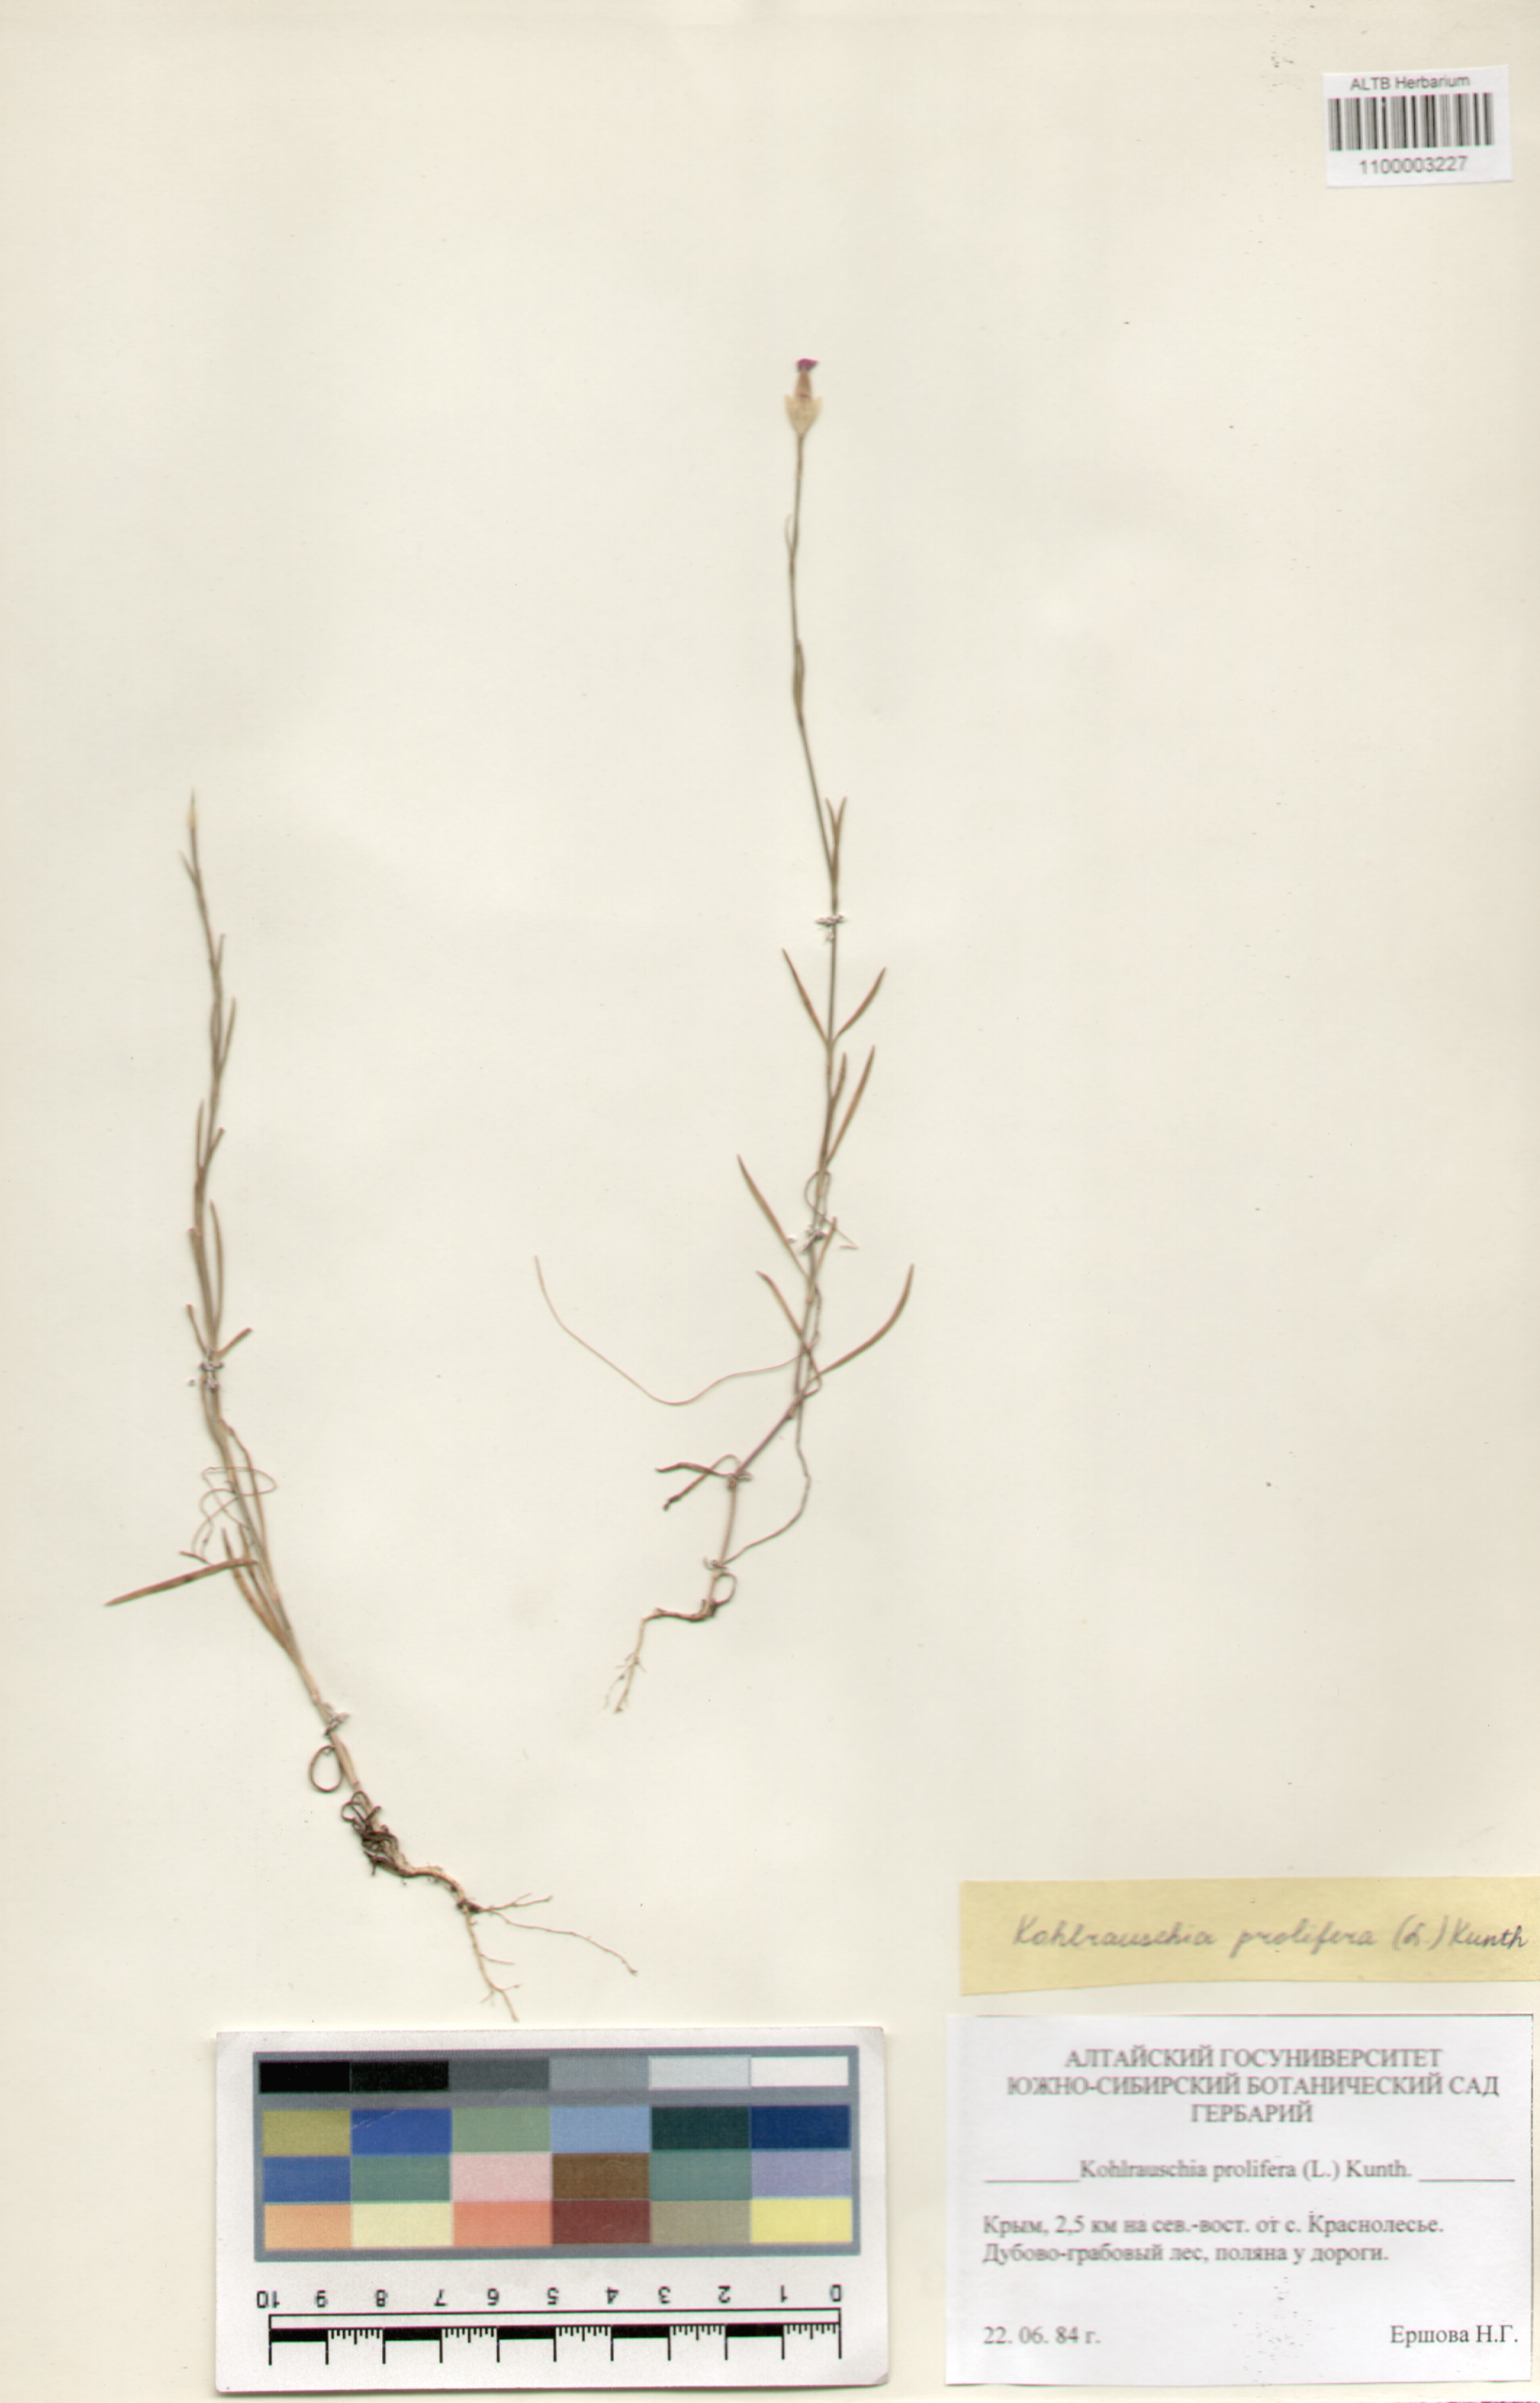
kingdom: Plantae
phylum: Tracheophyta
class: Magnoliopsida
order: Caryophyllales
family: Caryophyllaceae
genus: Petrorhagia
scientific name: Petrorhagia prolifera
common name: Proliferous pink
